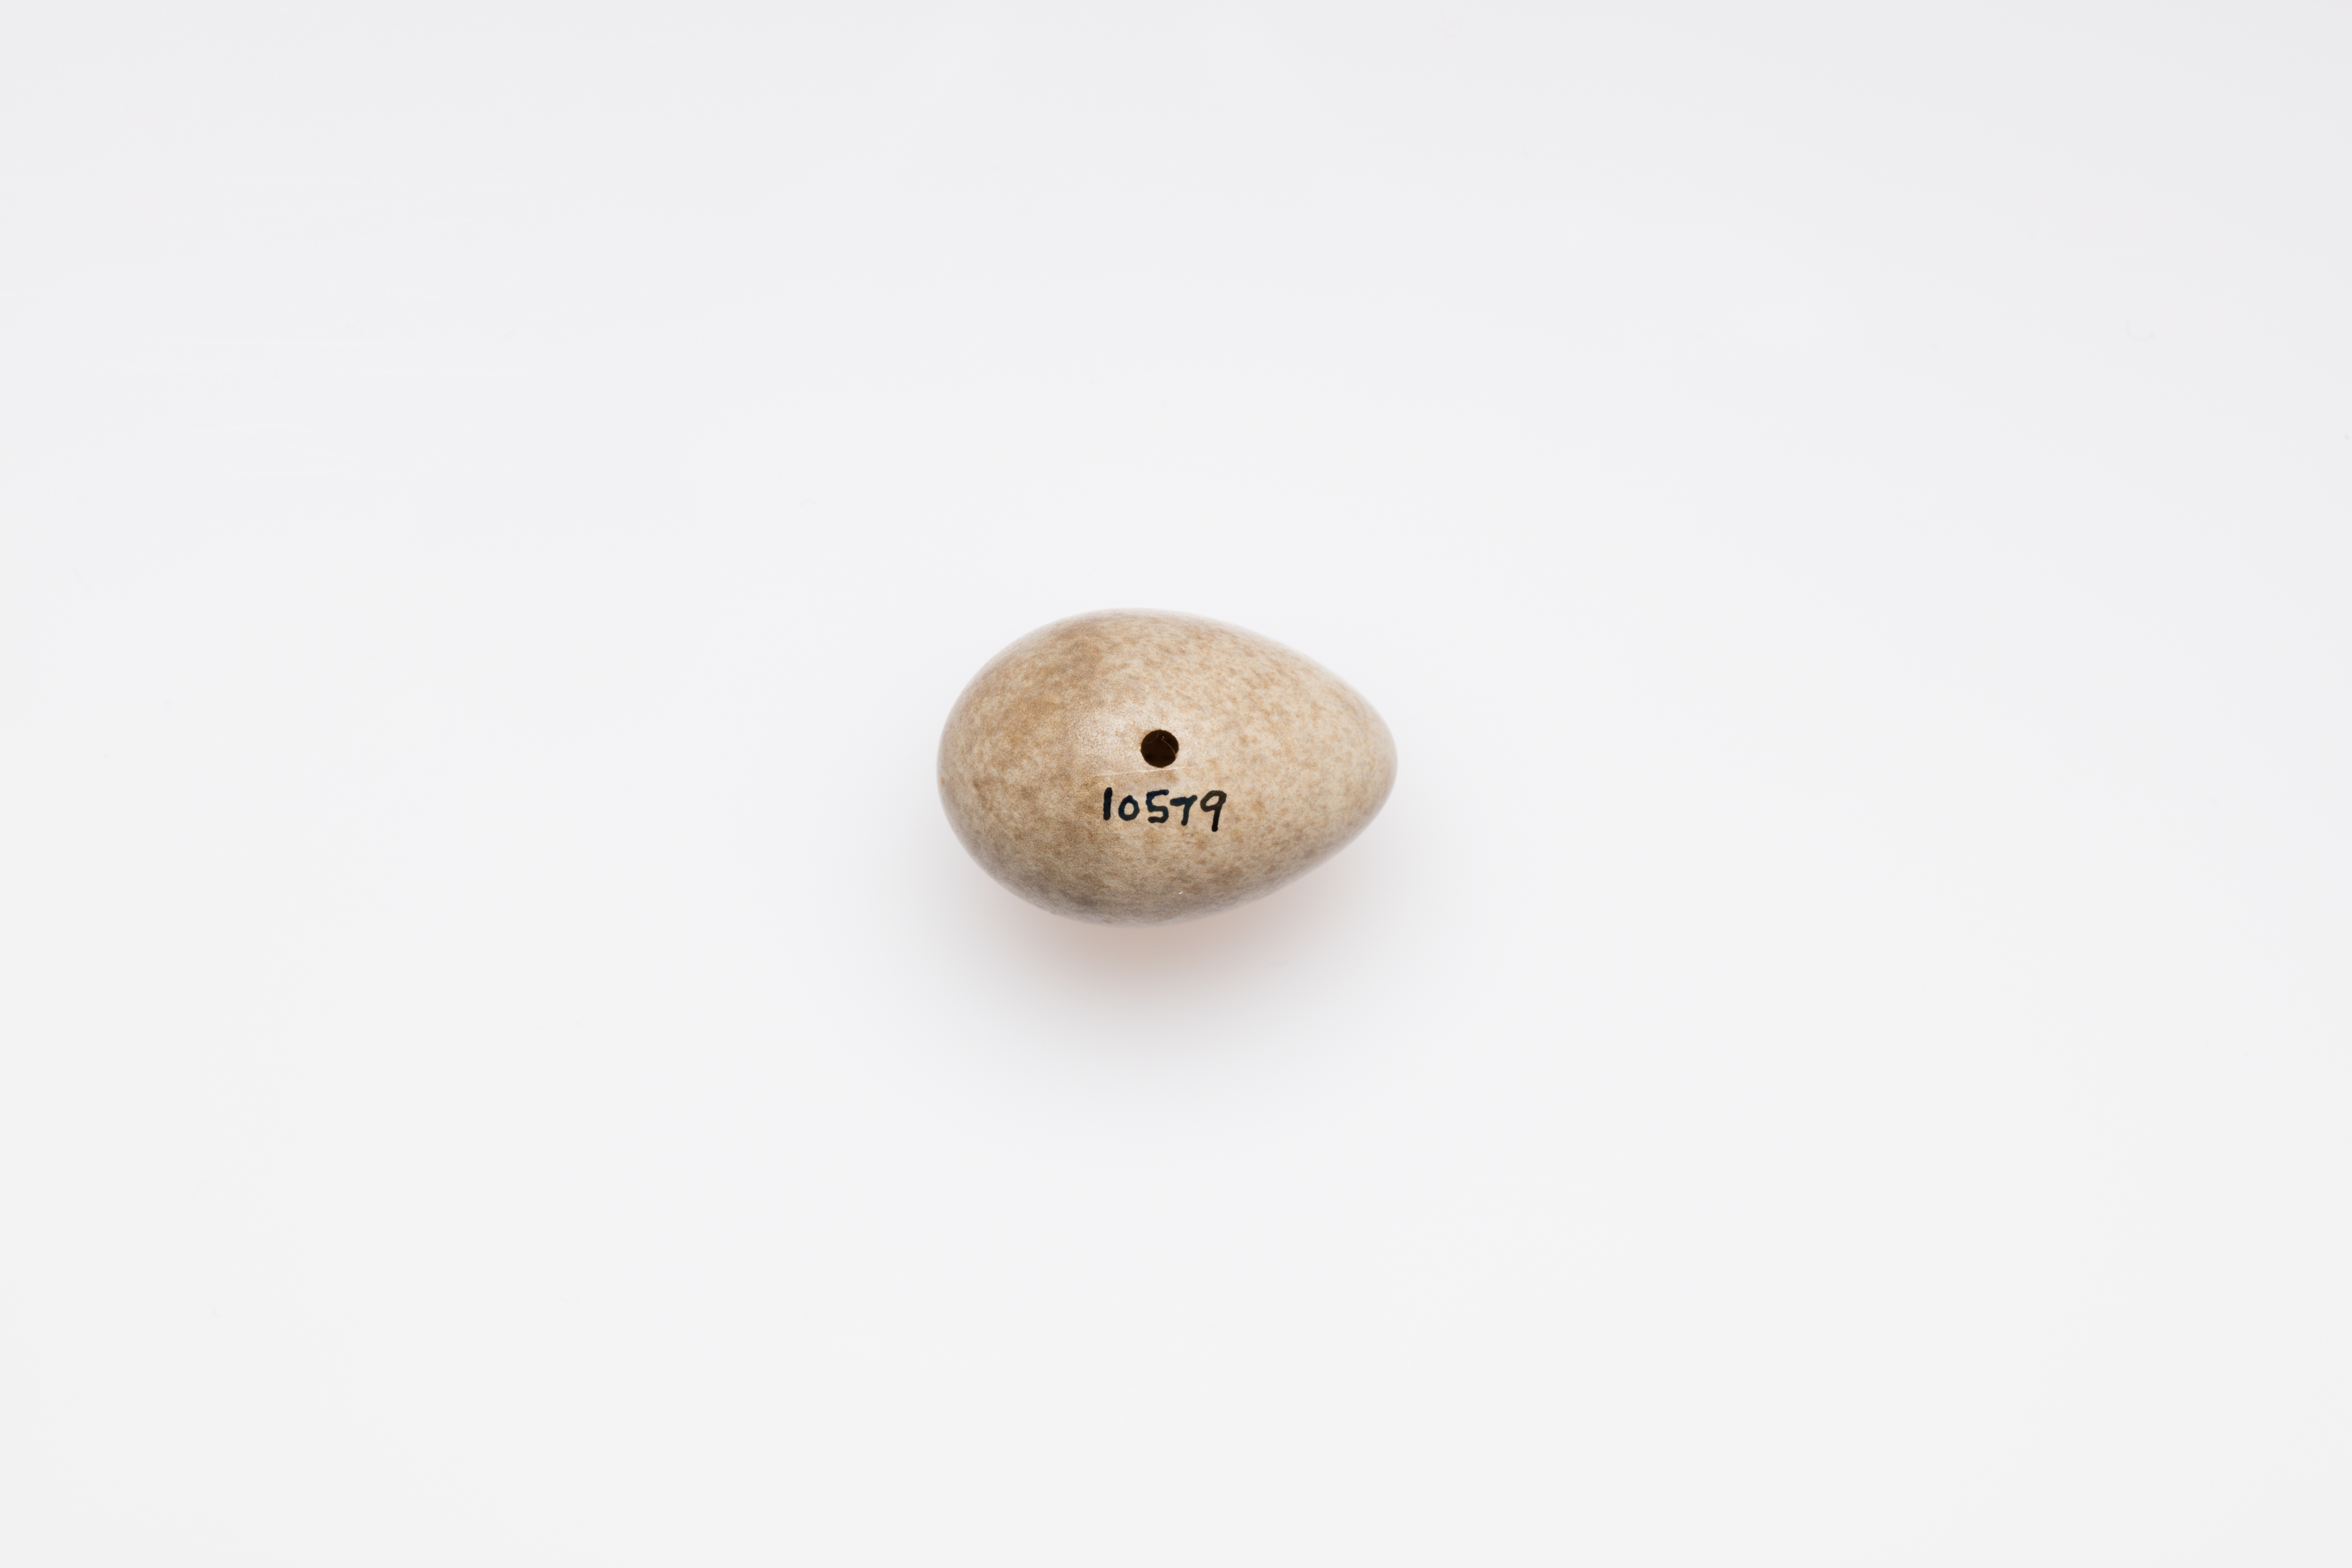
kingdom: Animalia
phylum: Chordata
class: Aves
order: Passeriformes
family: Turdidae
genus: Turdus
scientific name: Turdus iliacus
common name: Redwing
